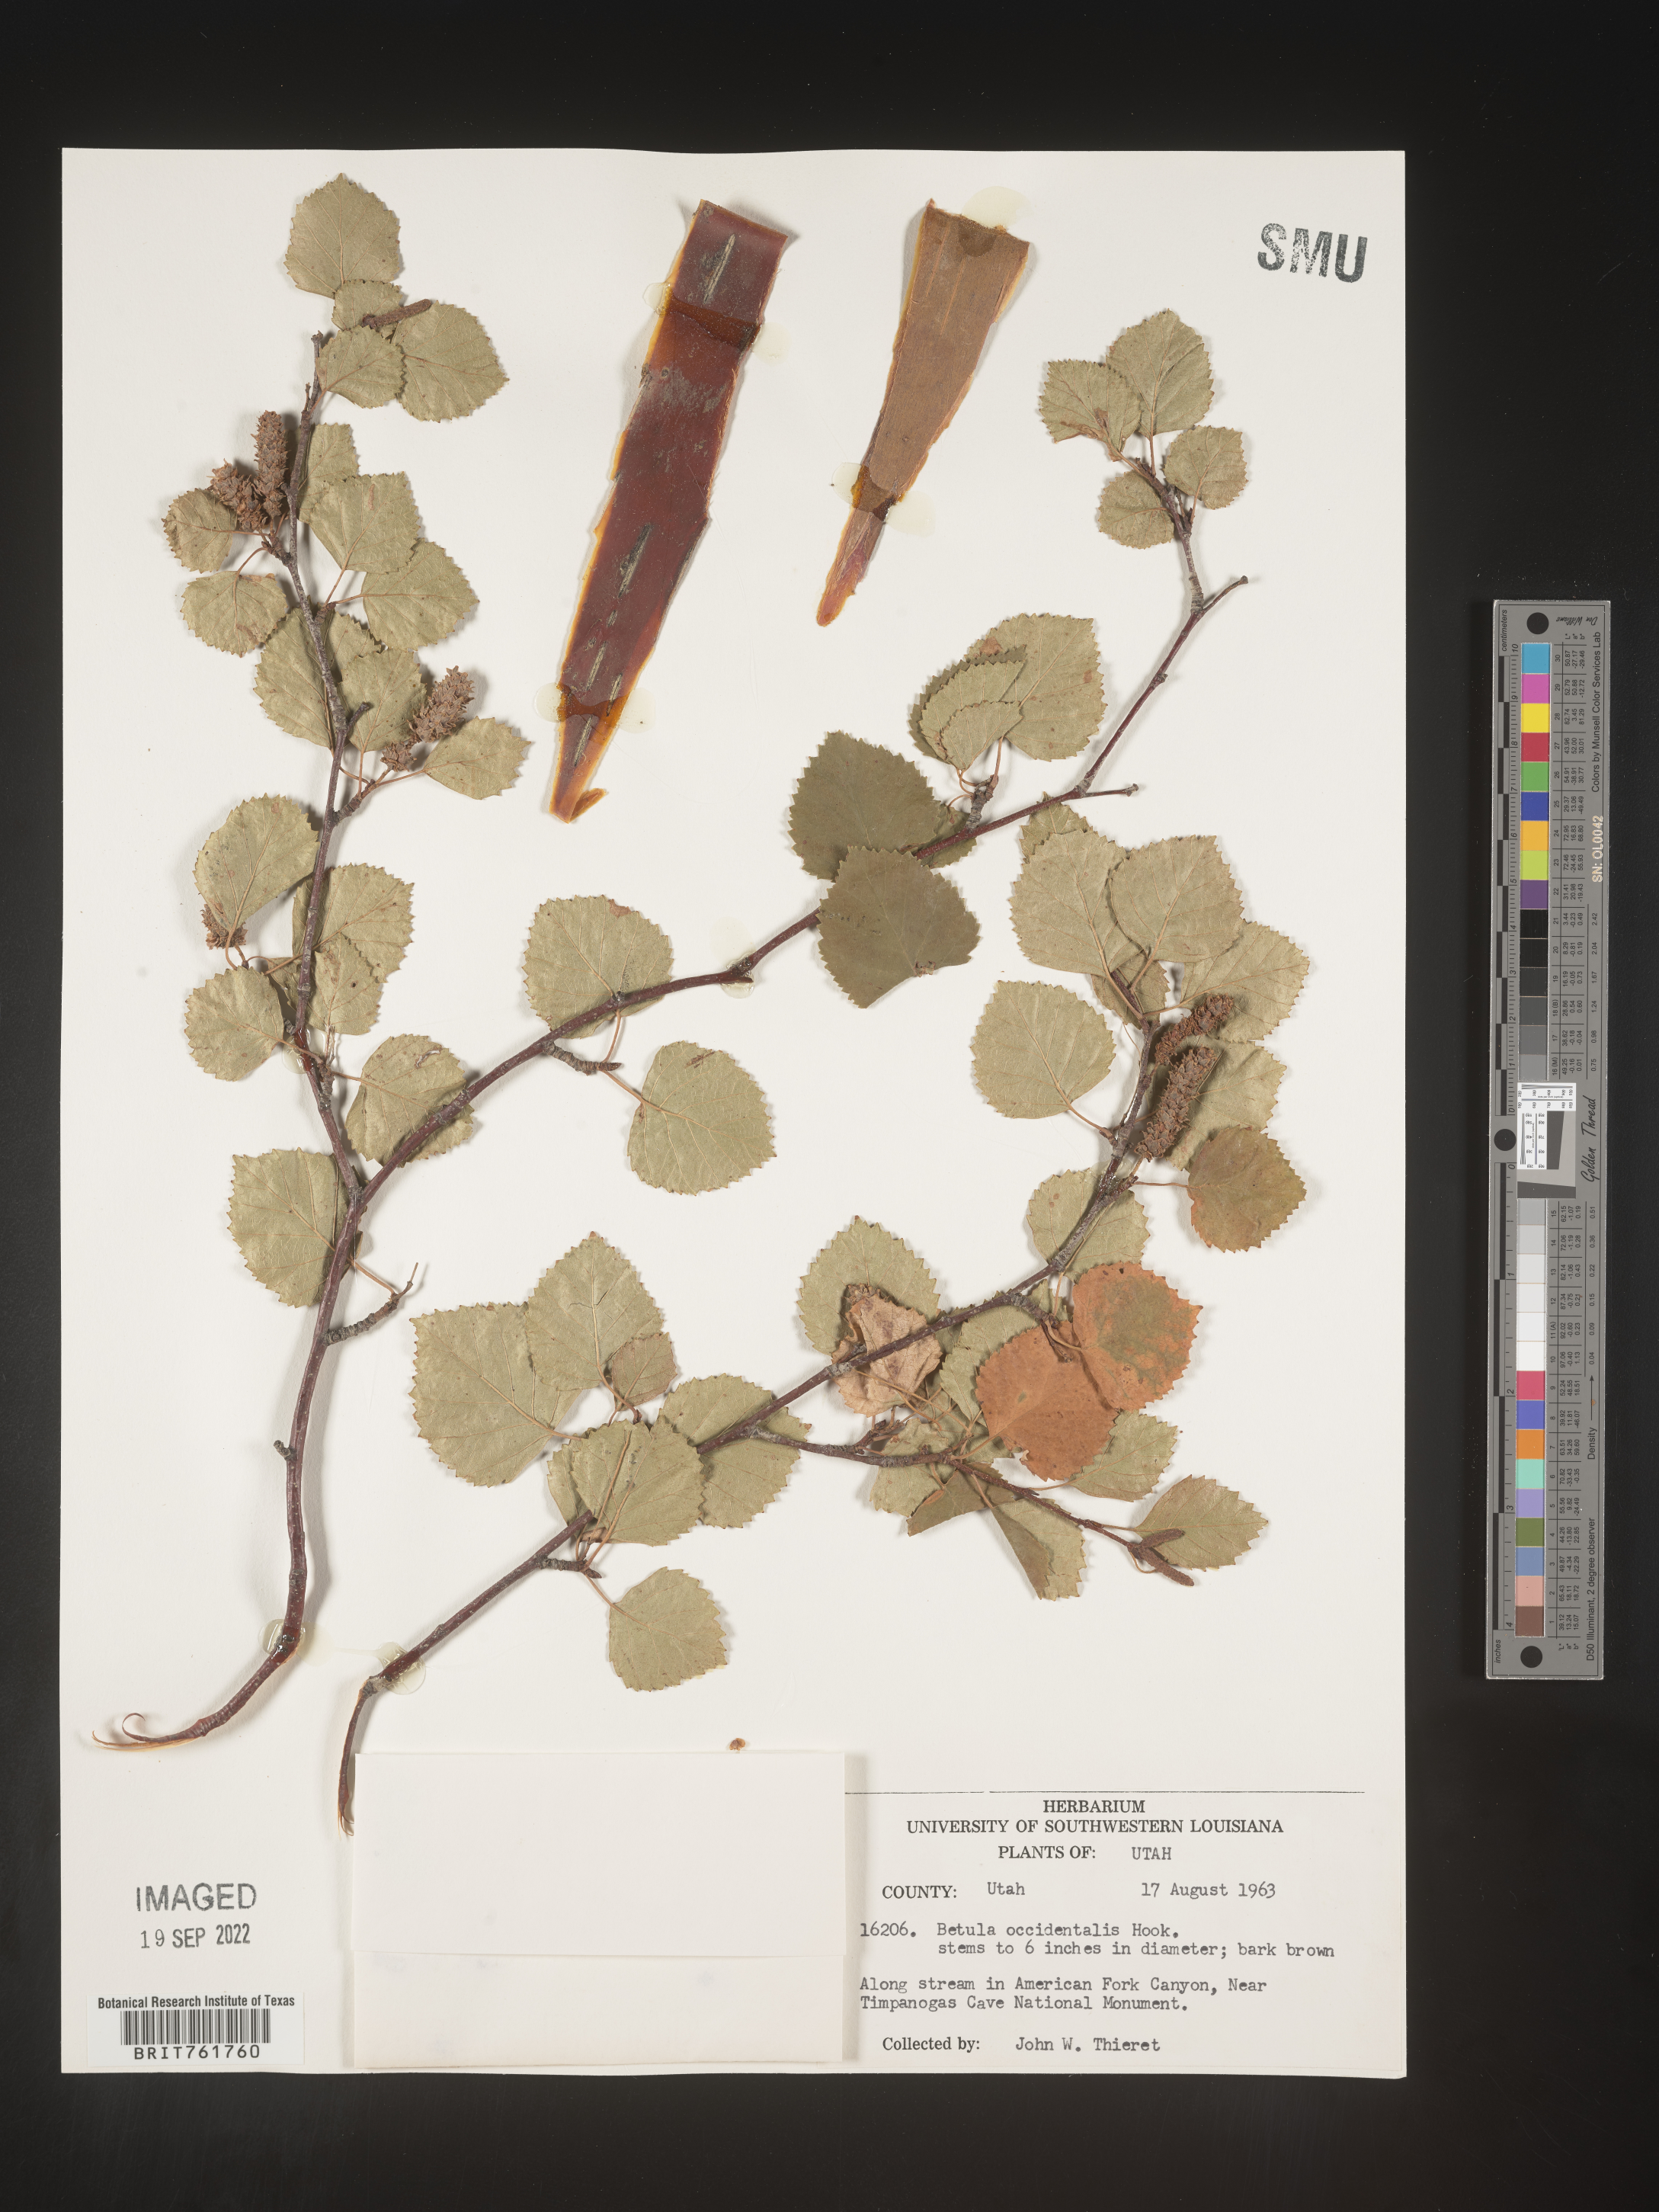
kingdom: Plantae
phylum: Tracheophyta
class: Magnoliopsida
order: Fagales
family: Betulaceae
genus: Betula
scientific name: Betula occidentalis
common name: River birch
